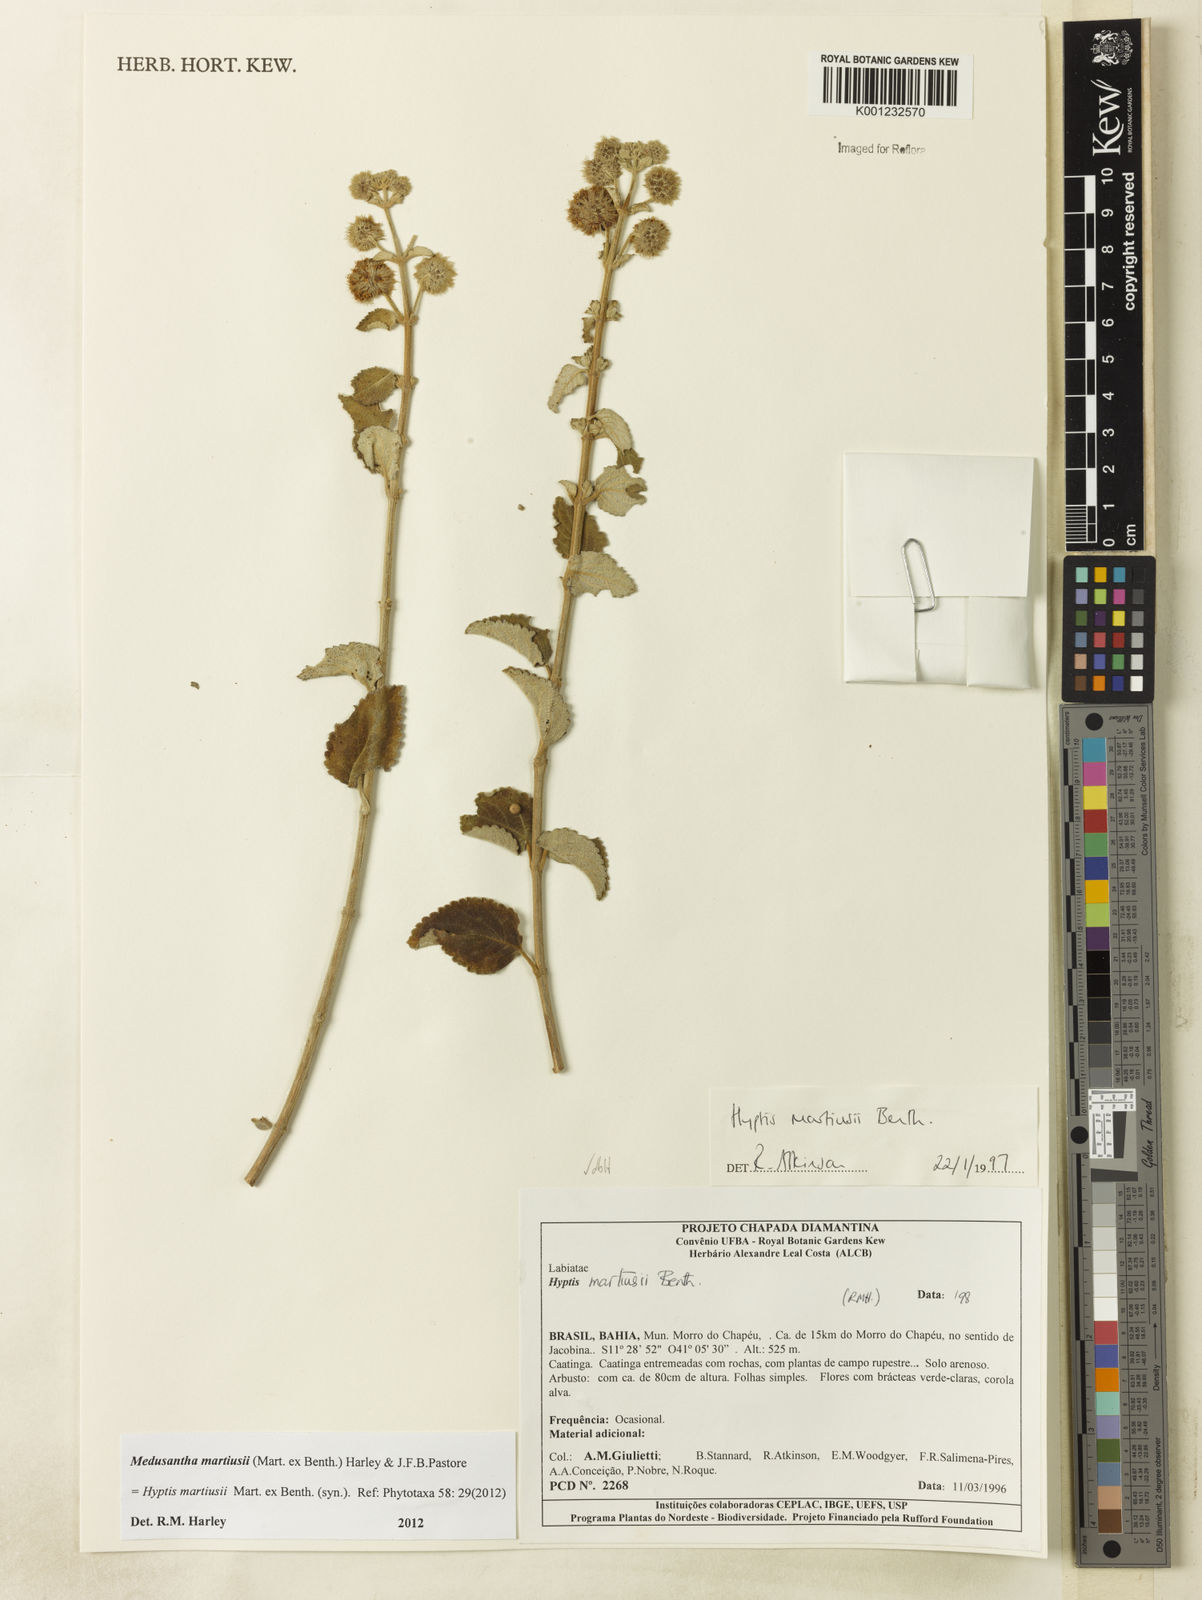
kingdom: Plantae
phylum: Tracheophyta
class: Magnoliopsida
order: Lamiales
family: Lamiaceae
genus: Medusantha
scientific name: Medusantha martiusii
